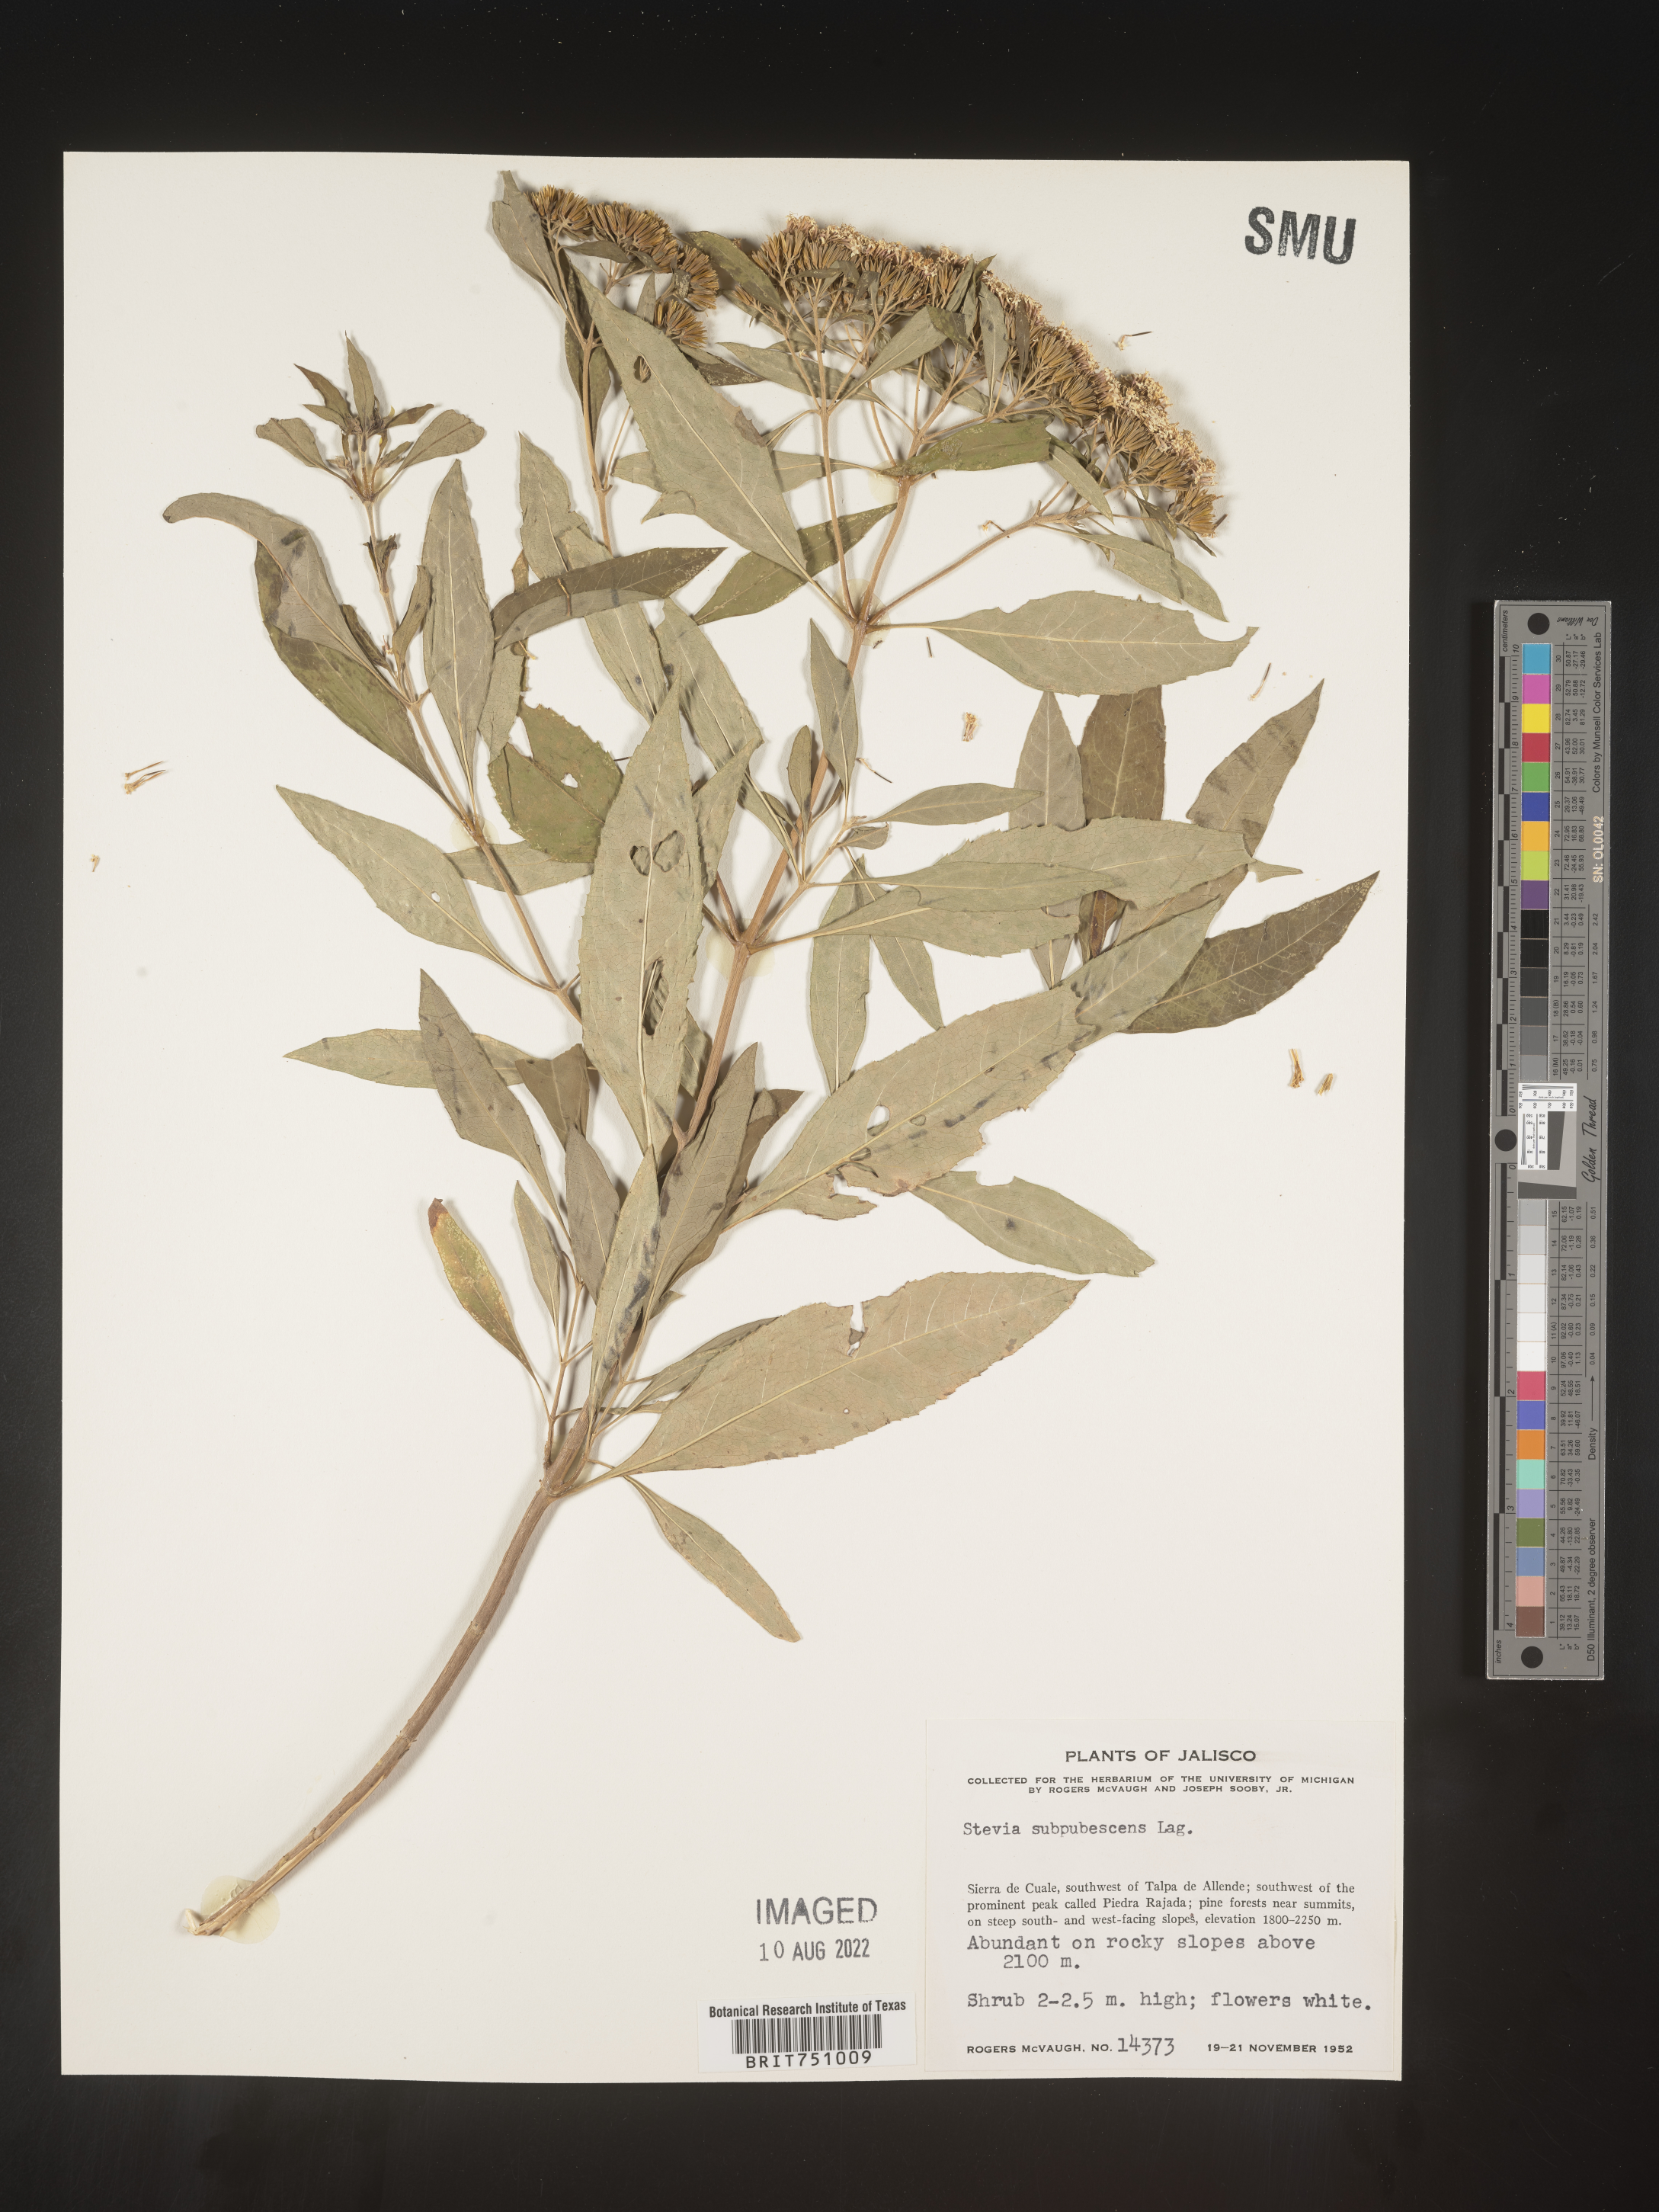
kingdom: Plantae
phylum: Tracheophyta
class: Magnoliopsida
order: Asterales
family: Asteraceae
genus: Stevia
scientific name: Stevia subpubescens
